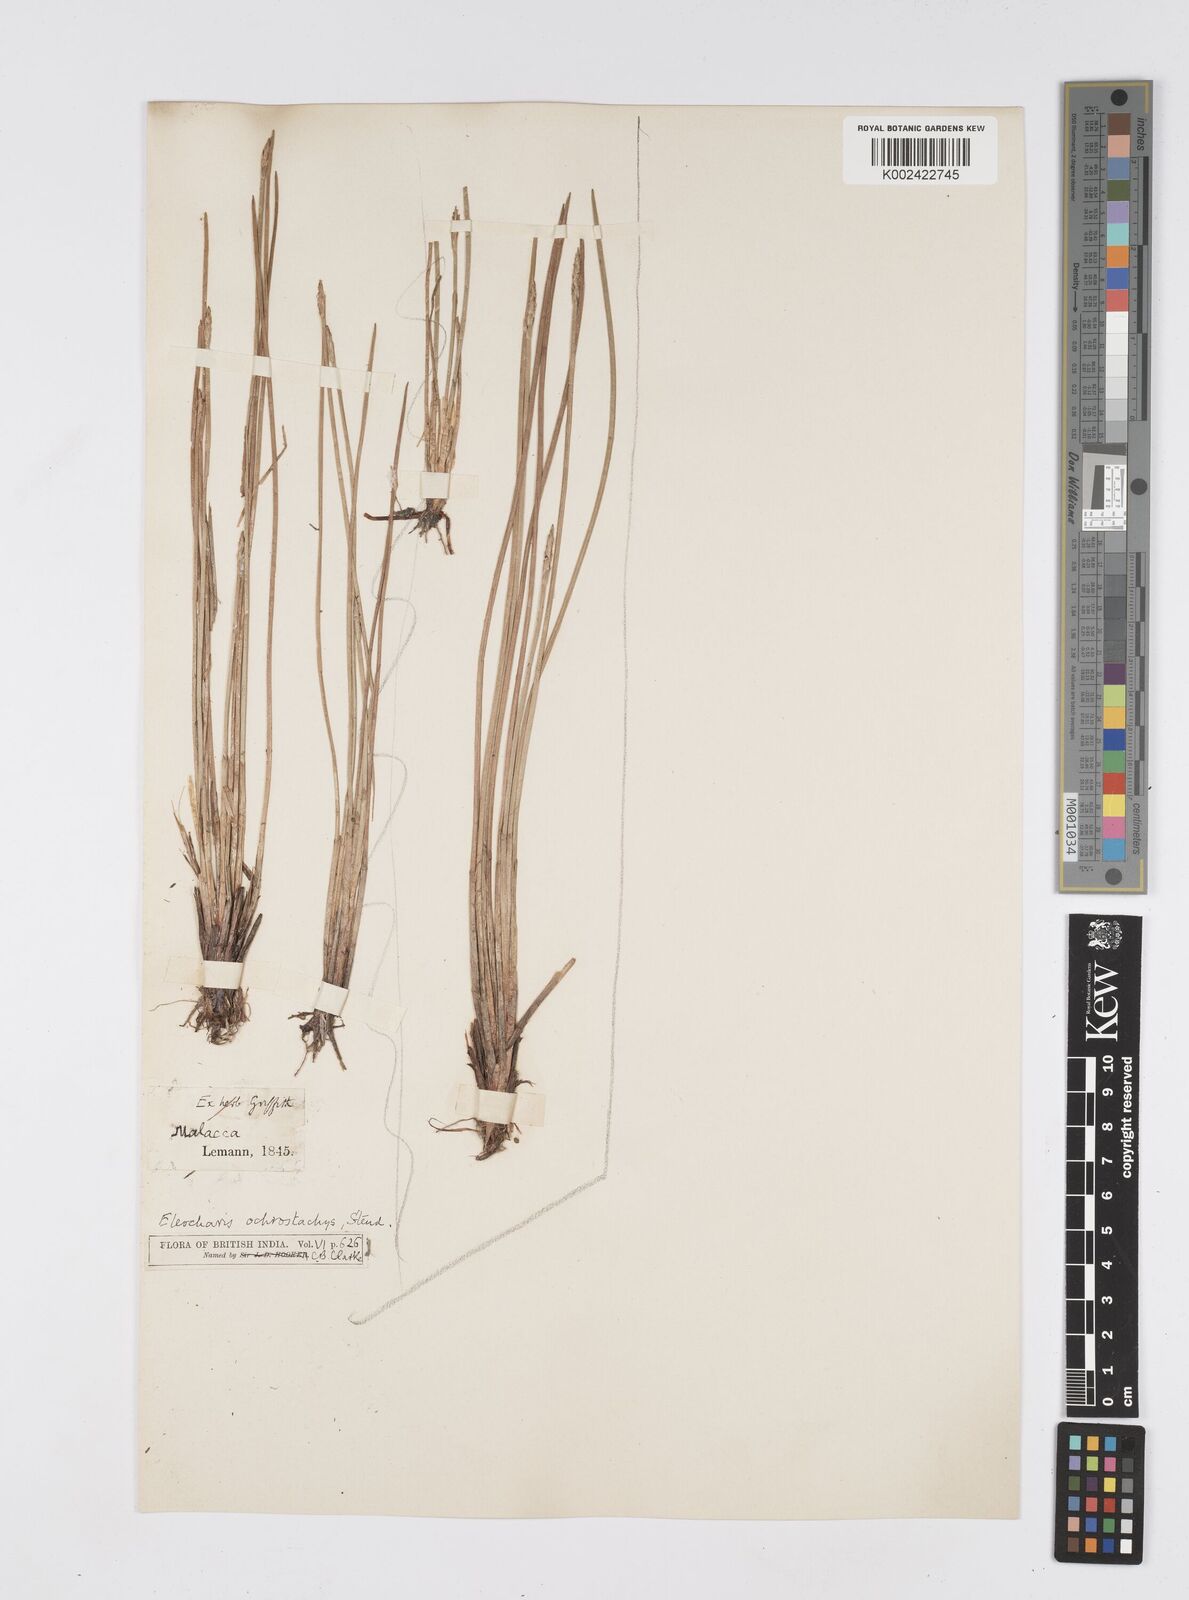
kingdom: Plantae
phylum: Tracheophyta
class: Liliopsida
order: Poales
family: Cyperaceae
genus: Eleocharis
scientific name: Eleocharis ochrostachys
